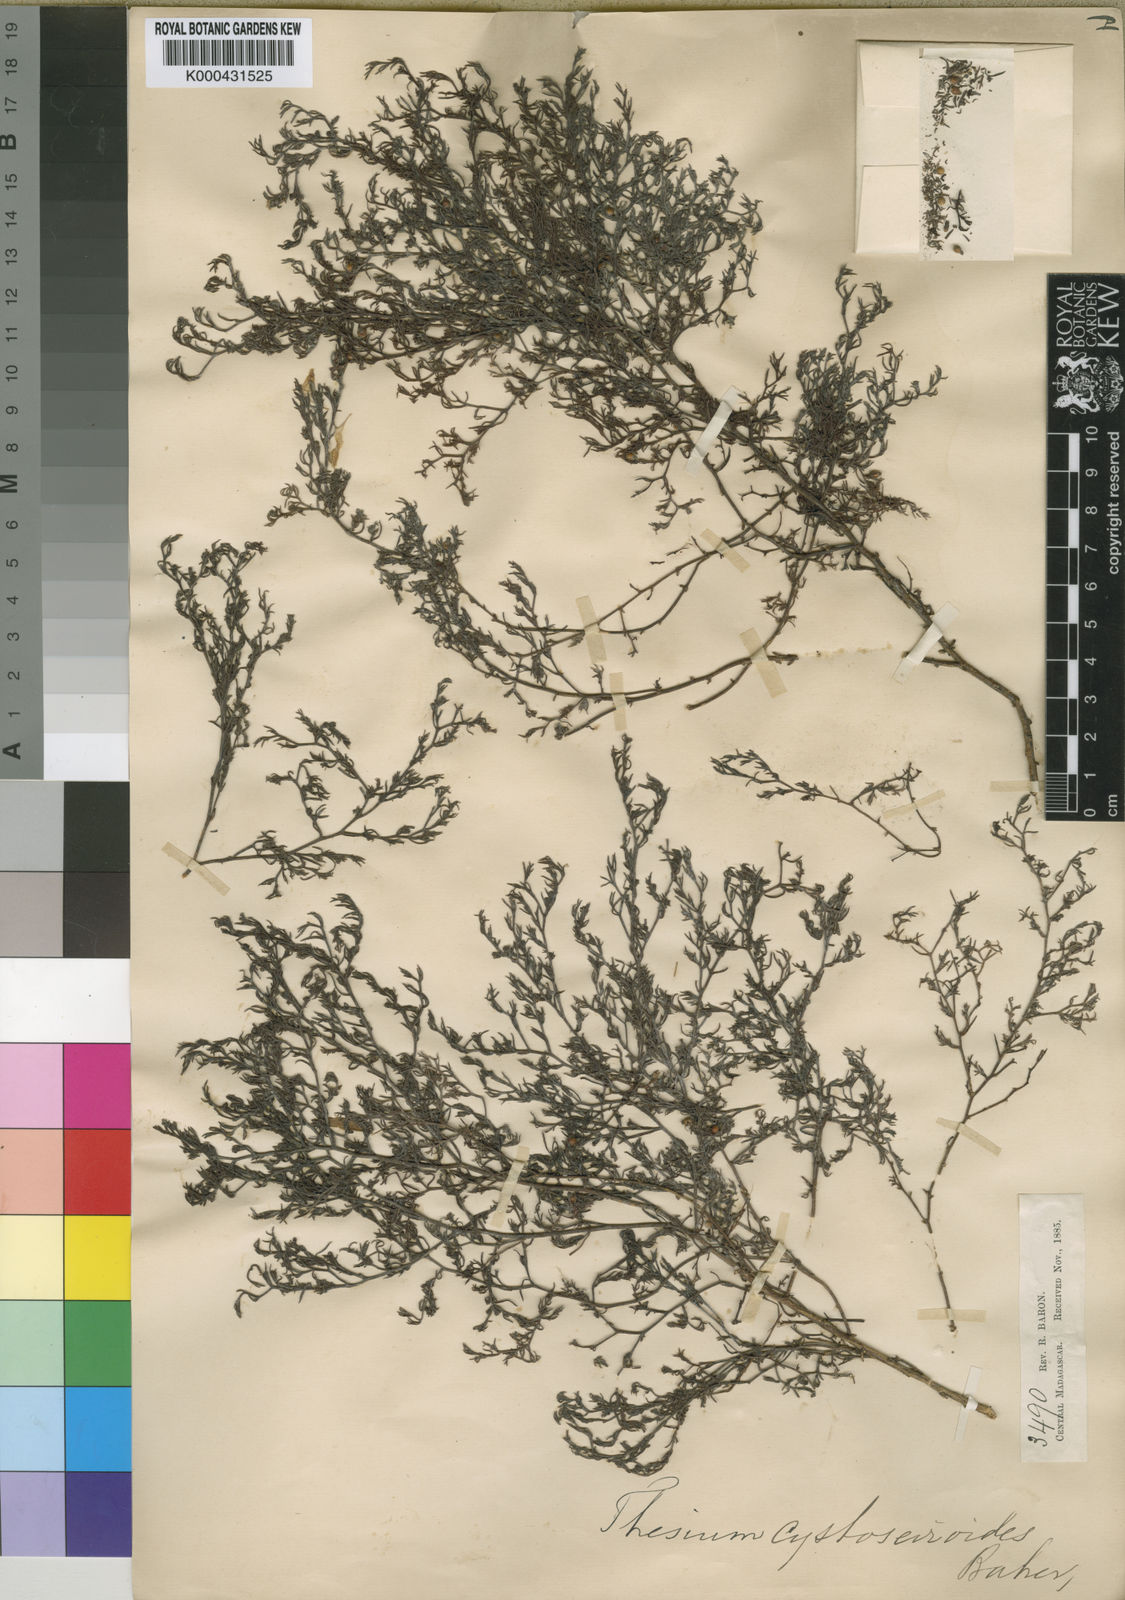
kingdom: Plantae
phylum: Tracheophyta
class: Magnoliopsida
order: Santalales
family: Thesiaceae
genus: Thesium
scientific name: Thesium cystoseiroides
